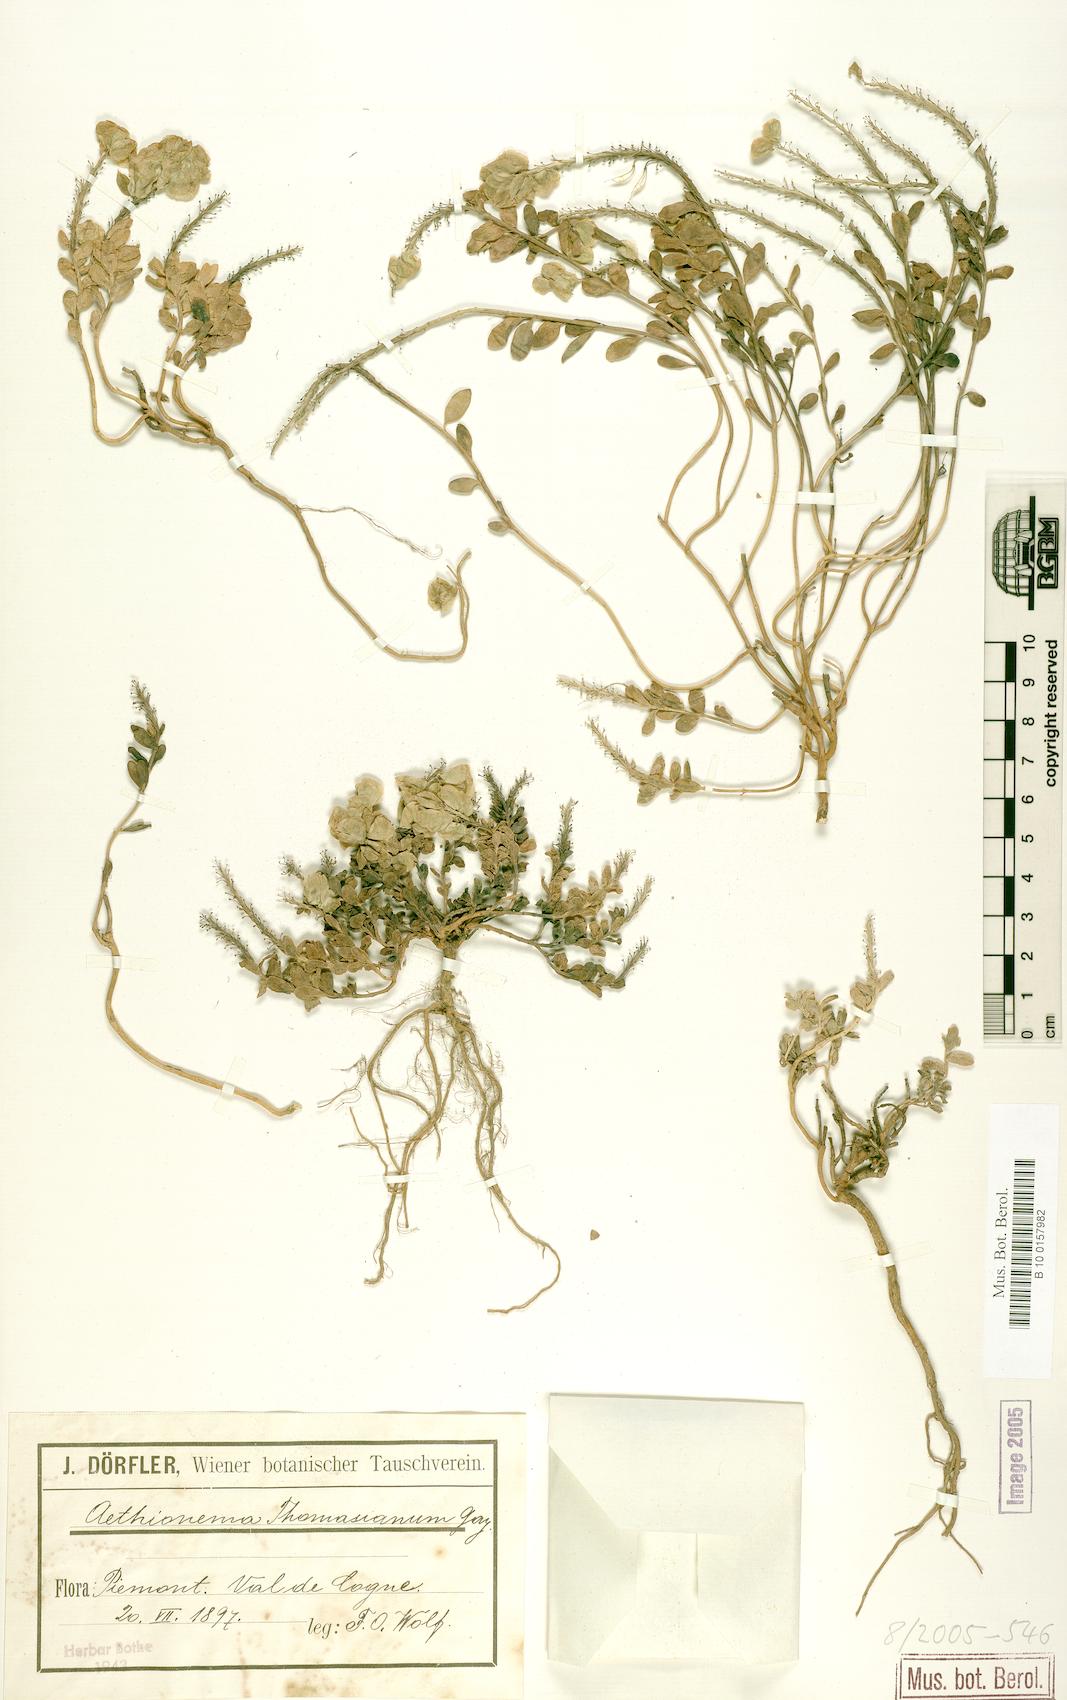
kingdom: Plantae
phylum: Tracheophyta
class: Magnoliopsida
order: Brassicales
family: Brassicaceae
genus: Aethionema
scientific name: Aethionema thomasianum
